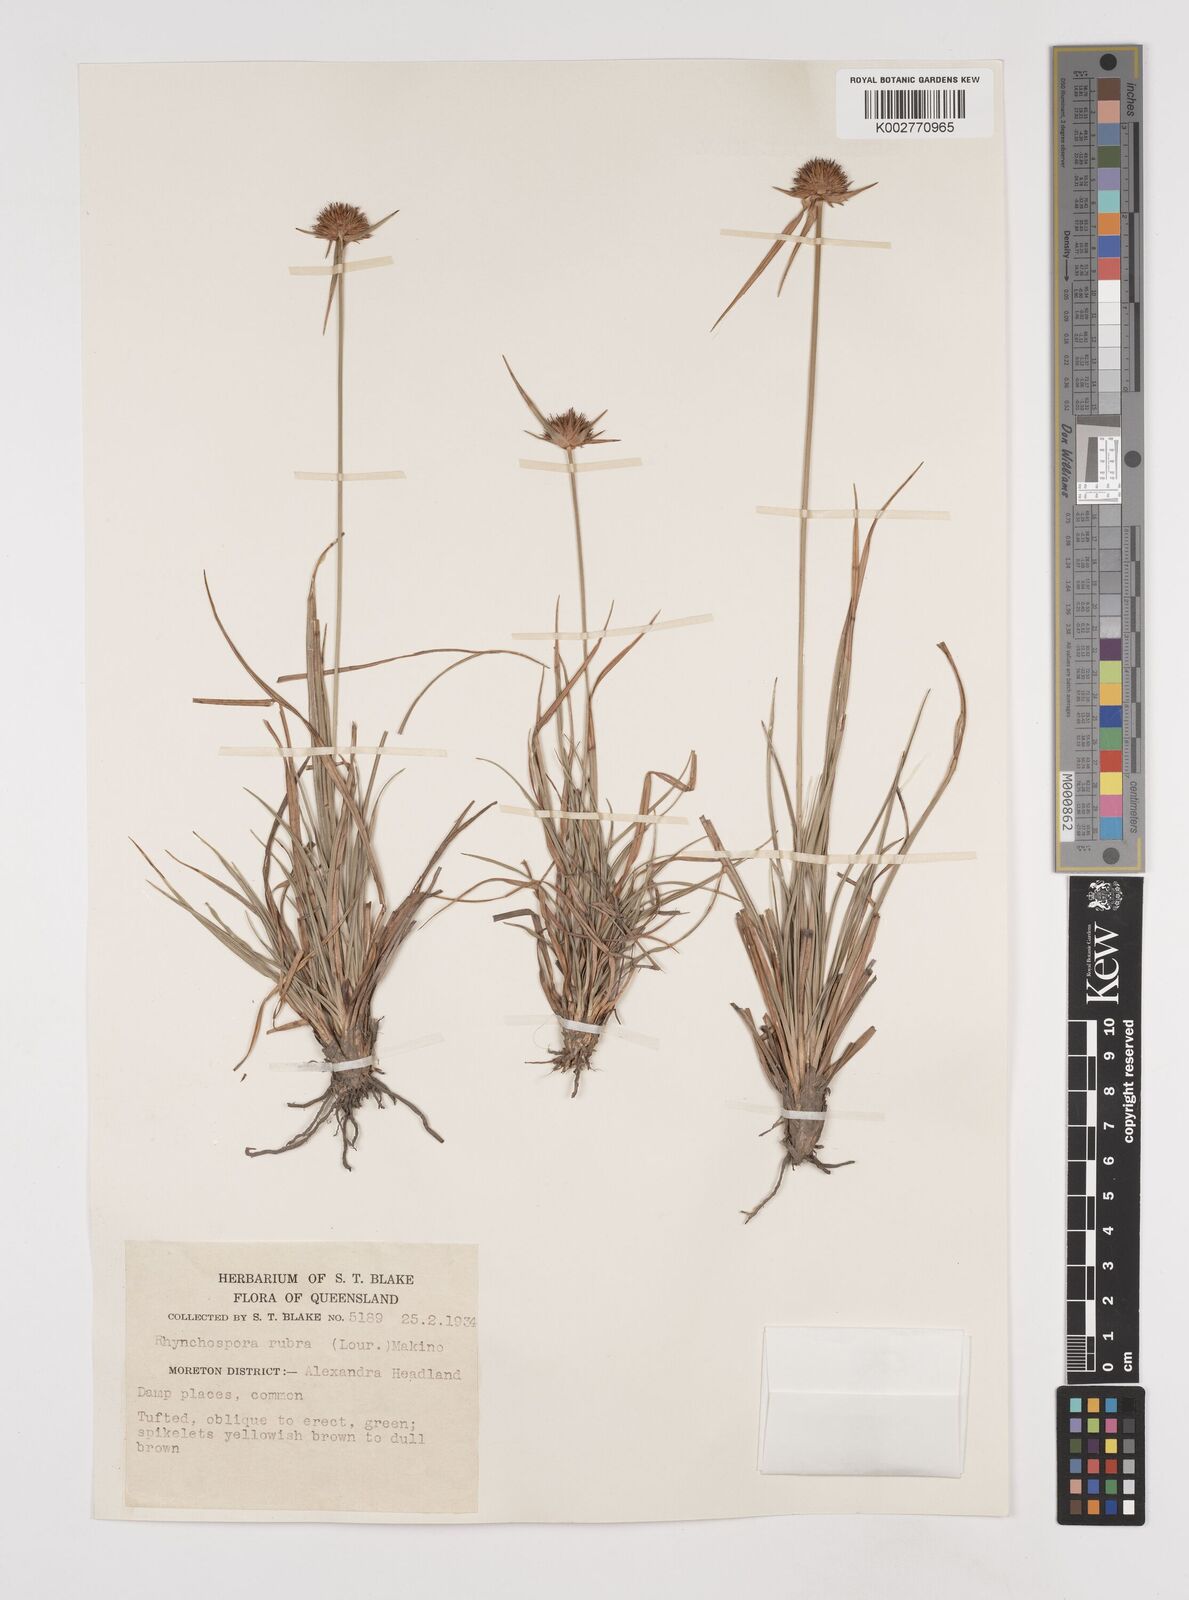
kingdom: Plantae
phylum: Tracheophyta
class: Liliopsida
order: Poales
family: Cyperaceae
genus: Rhynchospora
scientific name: Rhynchospora rubra
